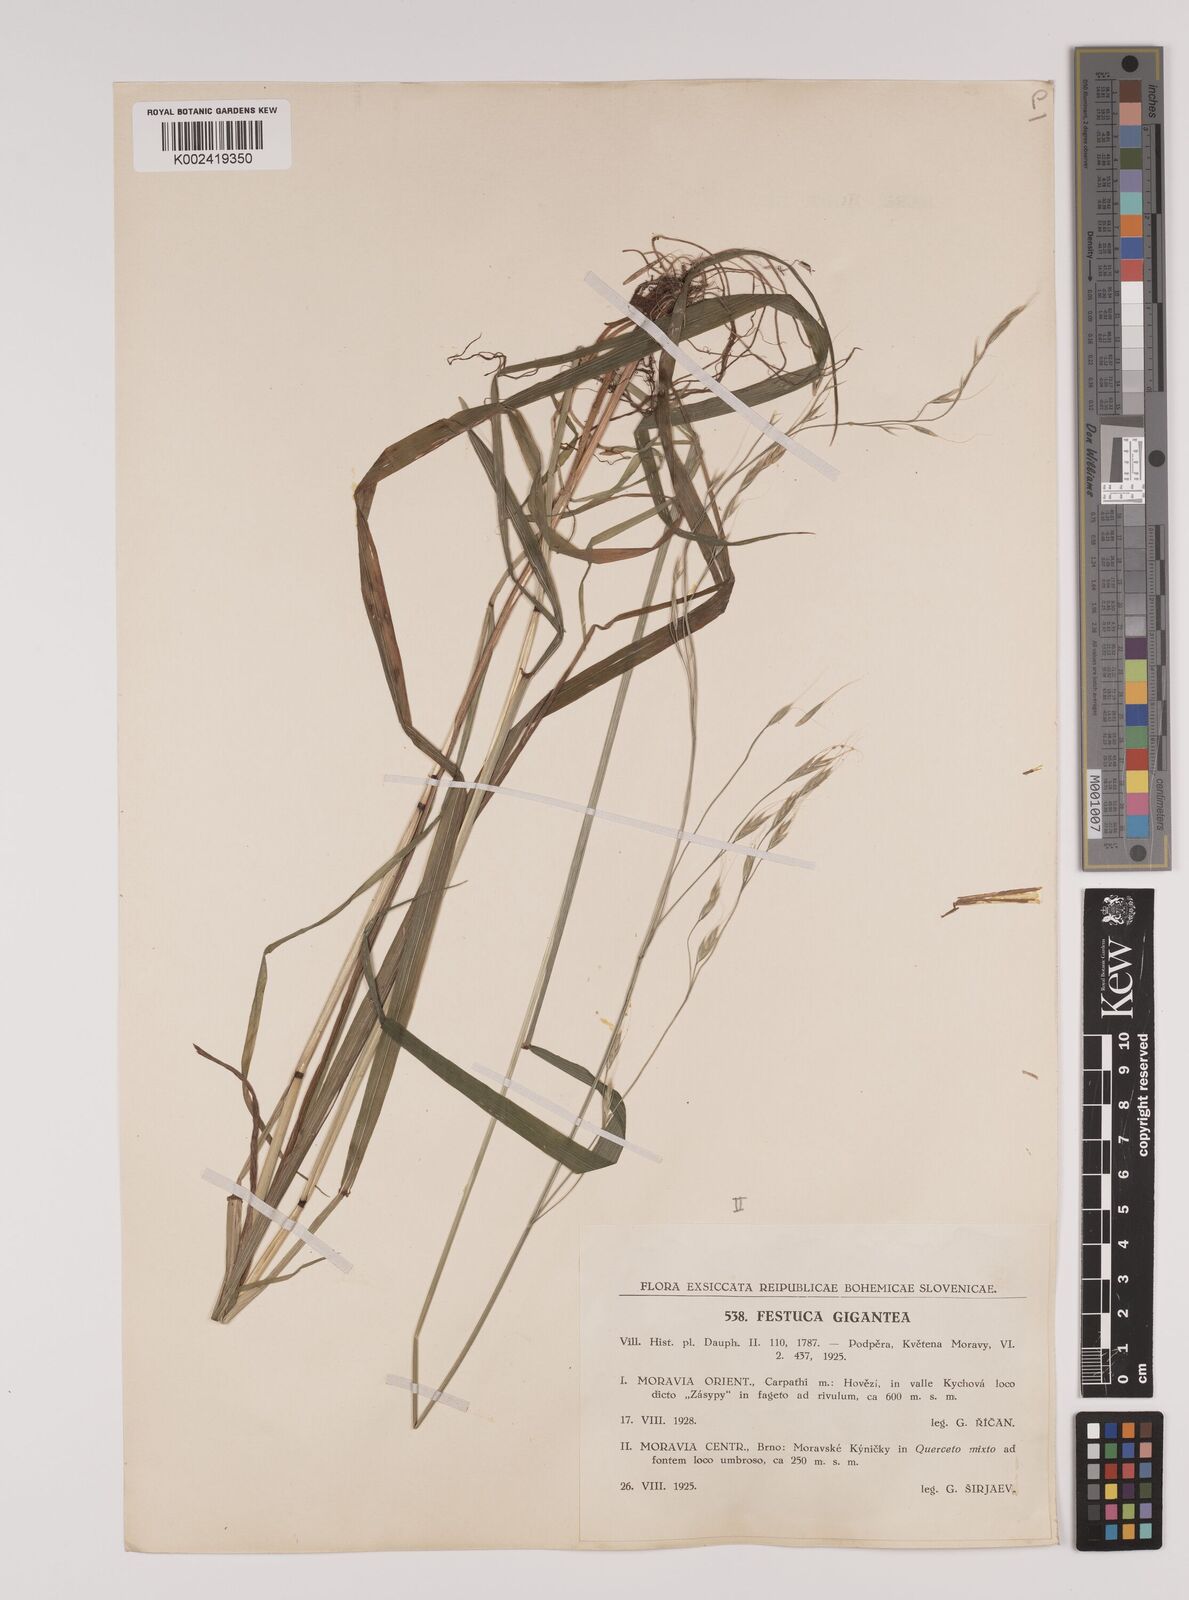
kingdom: Plantae
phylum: Tracheophyta
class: Liliopsida
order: Poales
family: Poaceae
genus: Lolium
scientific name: Lolium giganteum
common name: Giant fescue
